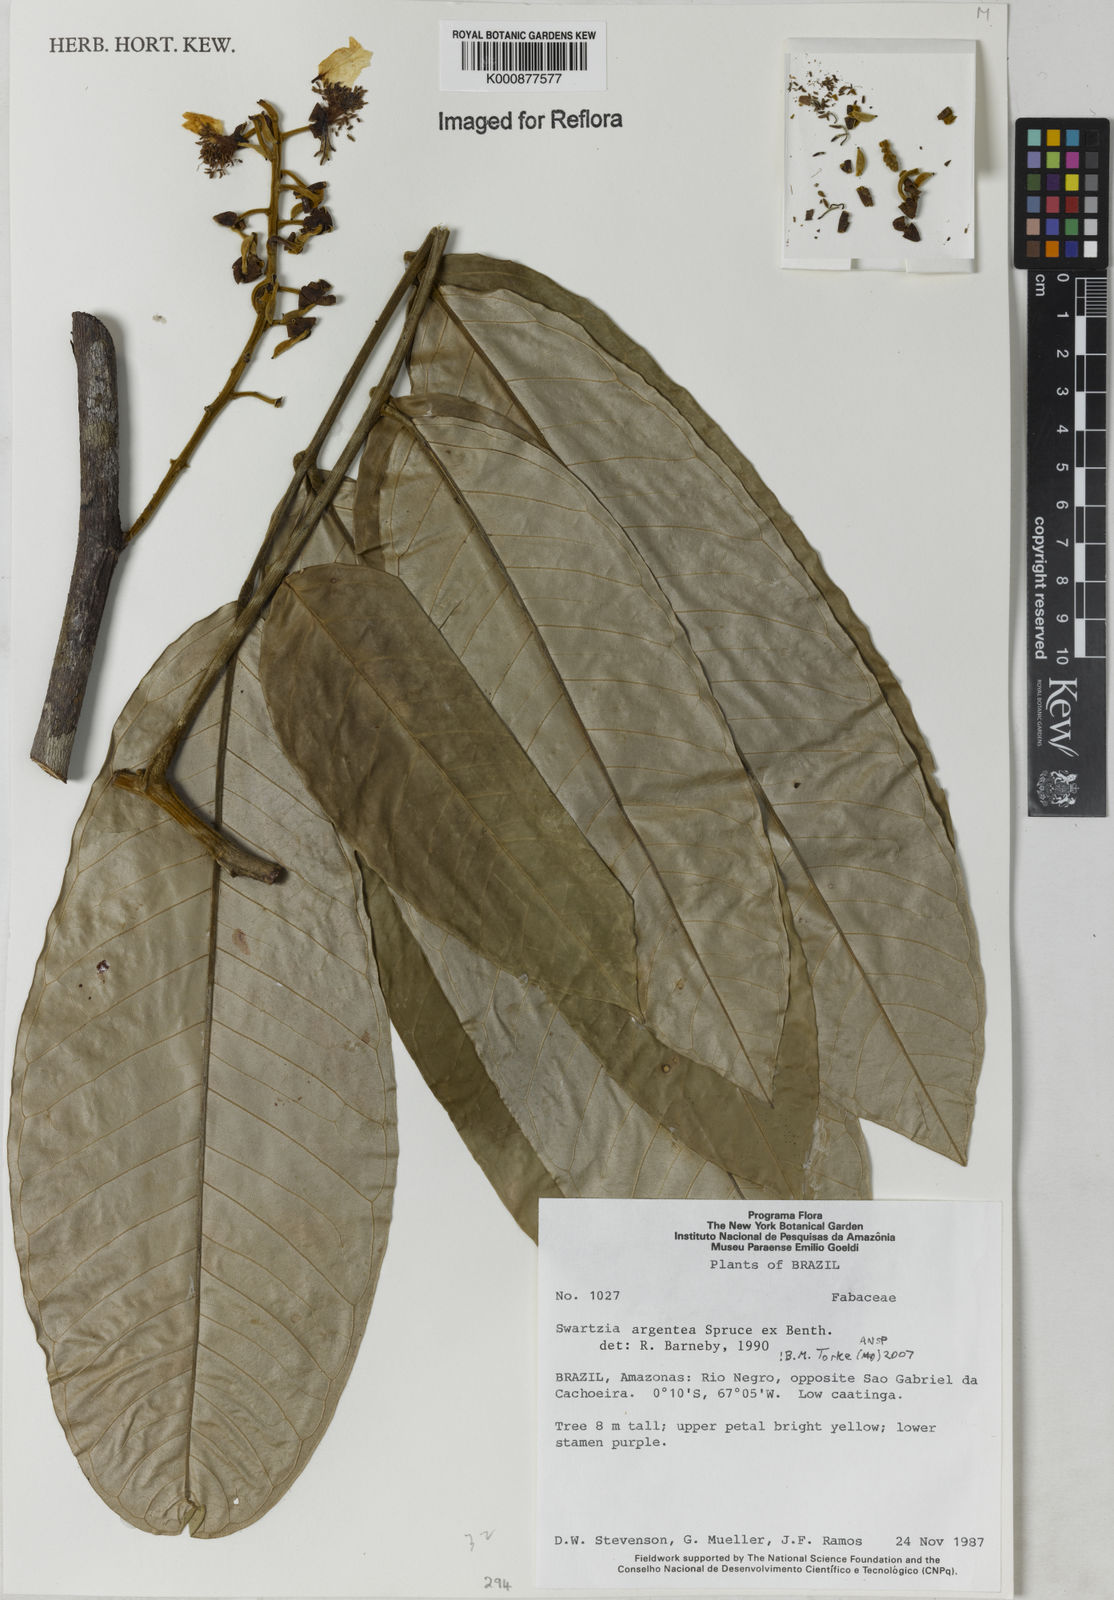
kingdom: Plantae
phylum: Tracheophyta
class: Magnoliopsida
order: Fabales
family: Fabaceae
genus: Swartzia
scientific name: Swartzia argentea
